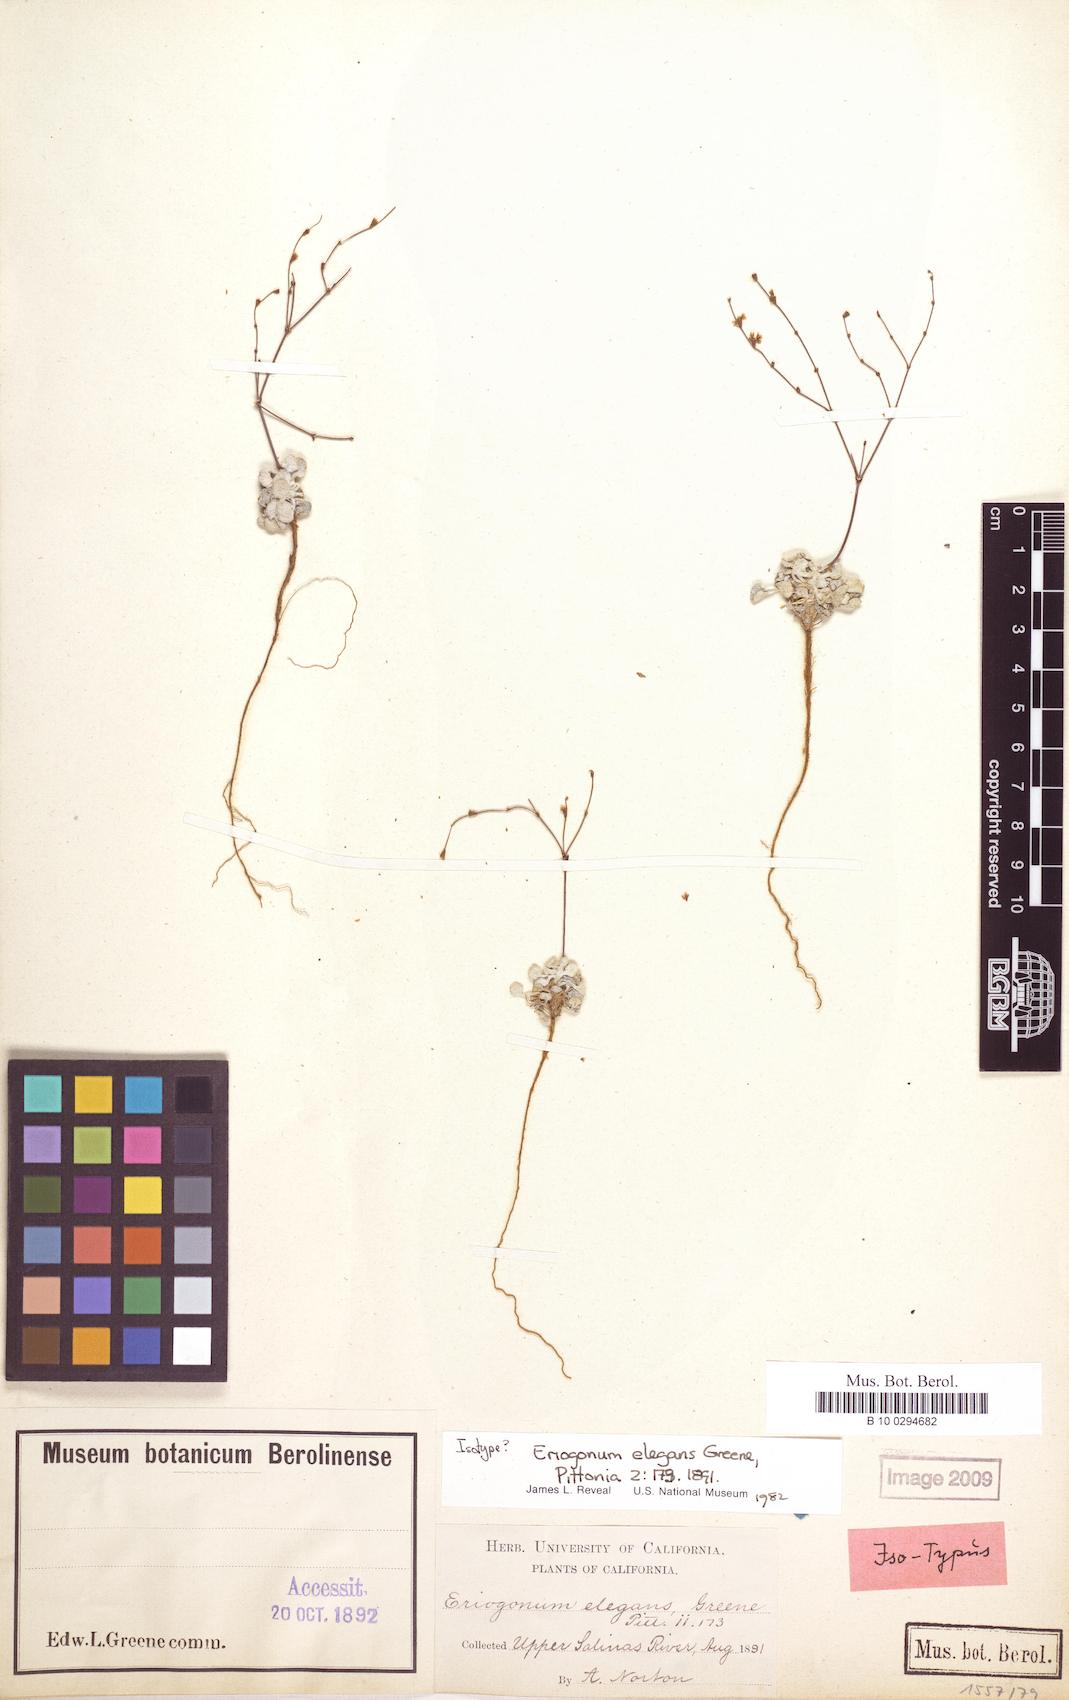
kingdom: Plantae
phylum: Tracheophyta
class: Magnoliopsida
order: Caryophyllales
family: Polygonaceae
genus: Eriogonum
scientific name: Eriogonum elegans
